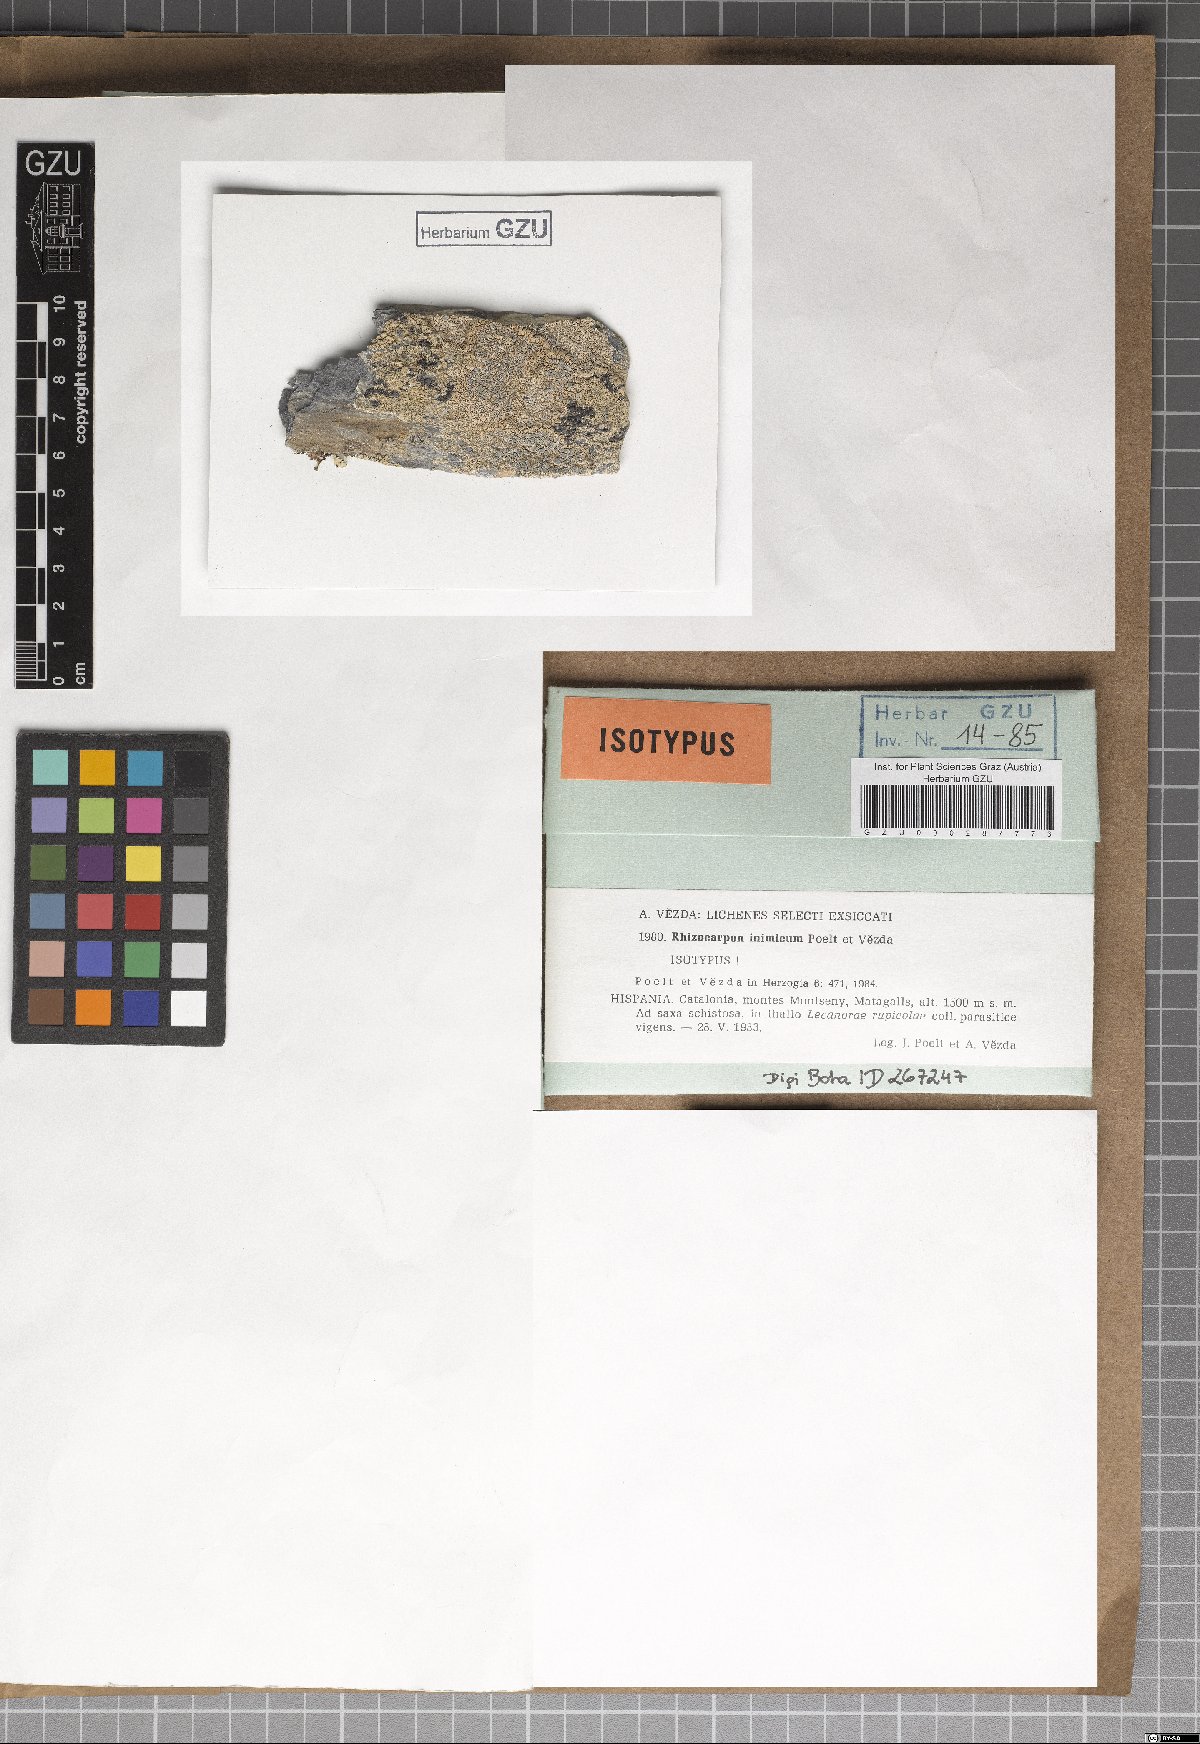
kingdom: Fungi
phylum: Ascomycota
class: Lecanoromycetes
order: Rhizocarpales
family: Rhizocarpaceae
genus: Rhizocarpon
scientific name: Rhizocarpon inimicum
